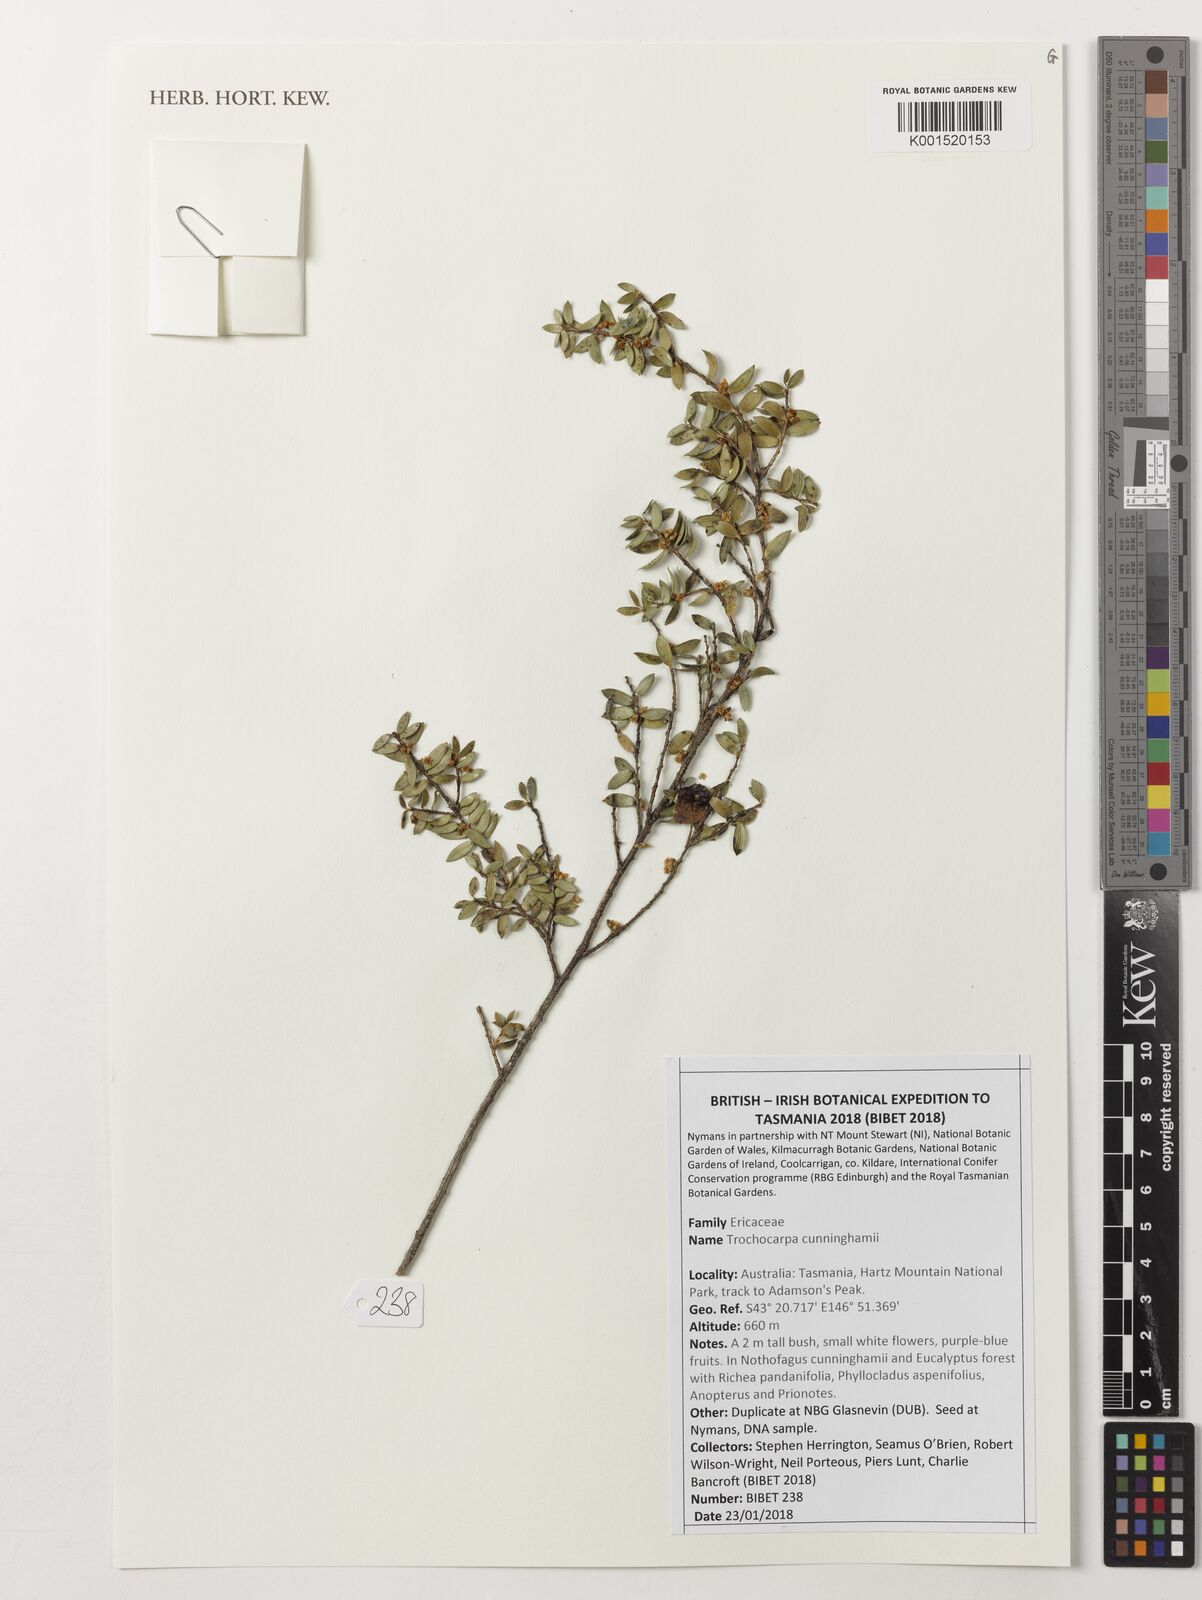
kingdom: Plantae
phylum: Tracheophyta
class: Magnoliopsida
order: Ericales
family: Ericaceae
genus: Trochocarpa
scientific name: Trochocarpa cunninghamii
